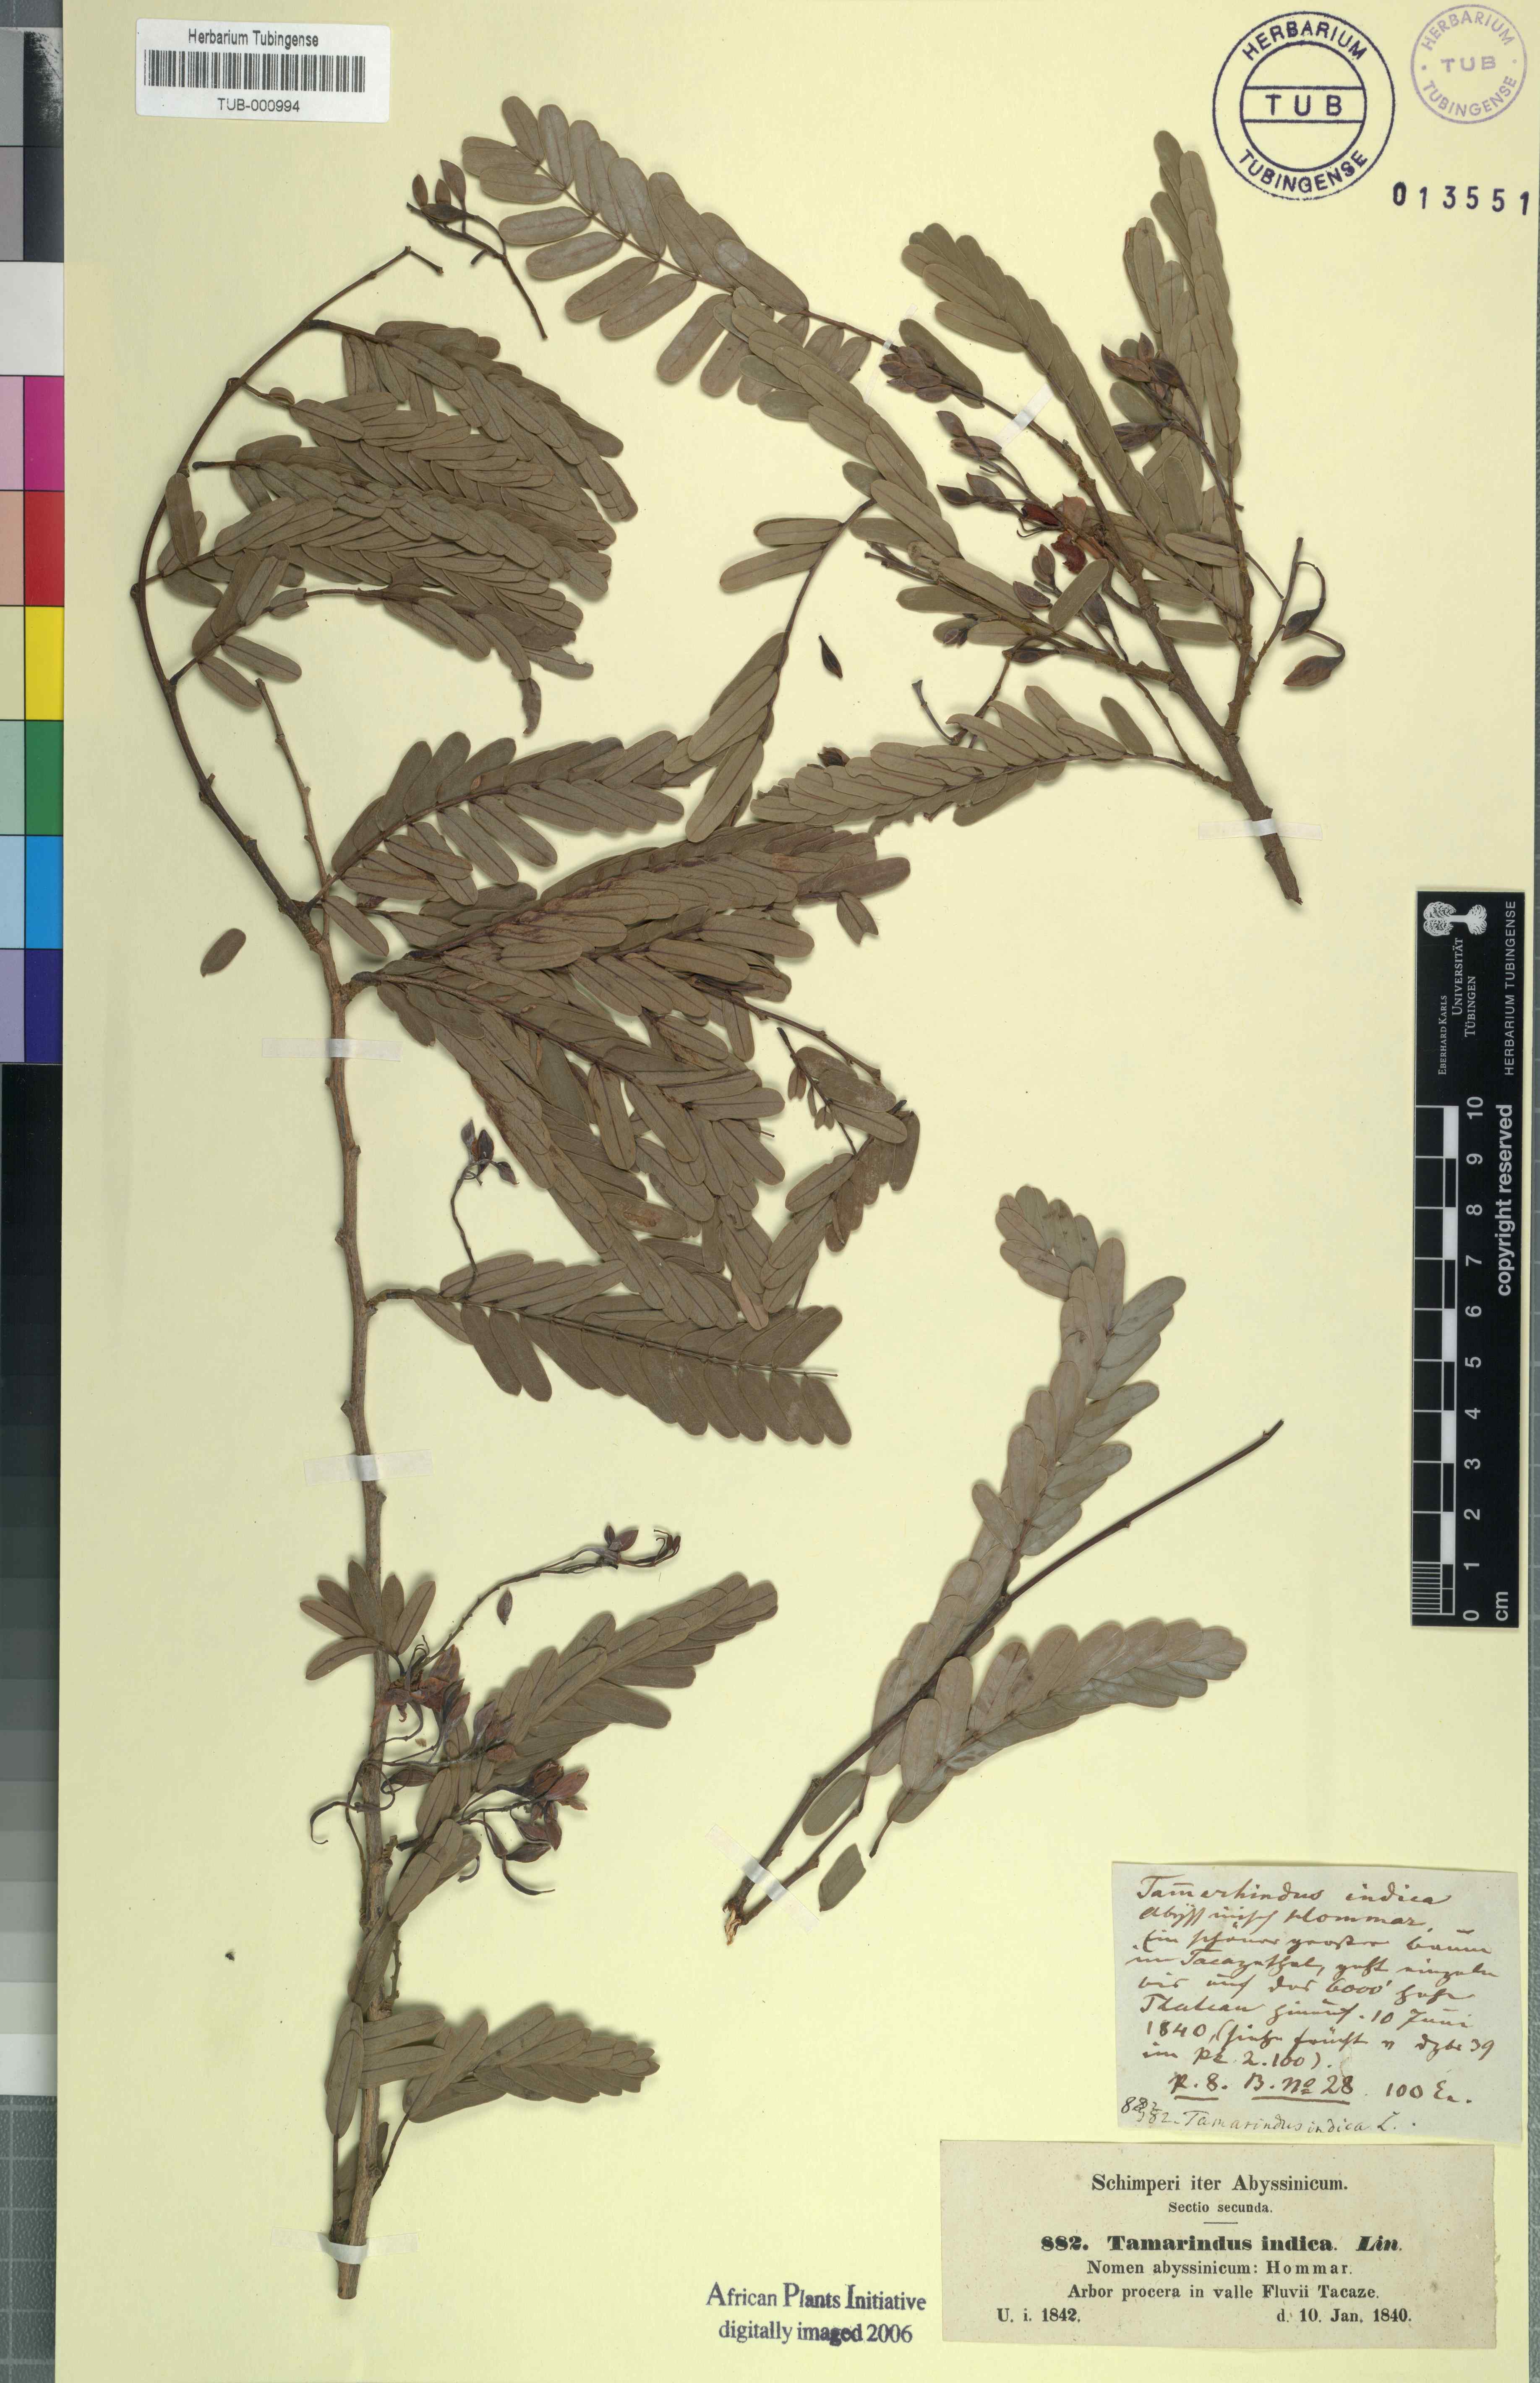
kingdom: Plantae
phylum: Tracheophyta
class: Magnoliopsida
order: Fabales
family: Fabaceae
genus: Tamarindus
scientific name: Tamarindus indica
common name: Tamarind
